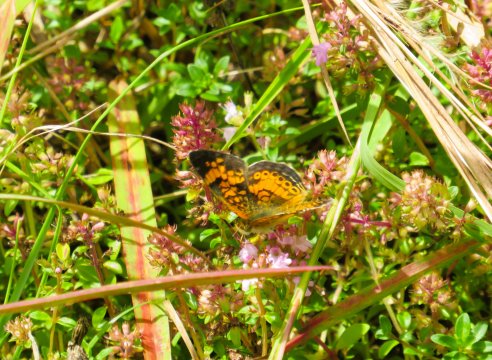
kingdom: Animalia
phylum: Arthropoda
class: Insecta
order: Lepidoptera
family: Nymphalidae
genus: Phyciodes
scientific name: Phyciodes tharos
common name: Pearl Crescent
